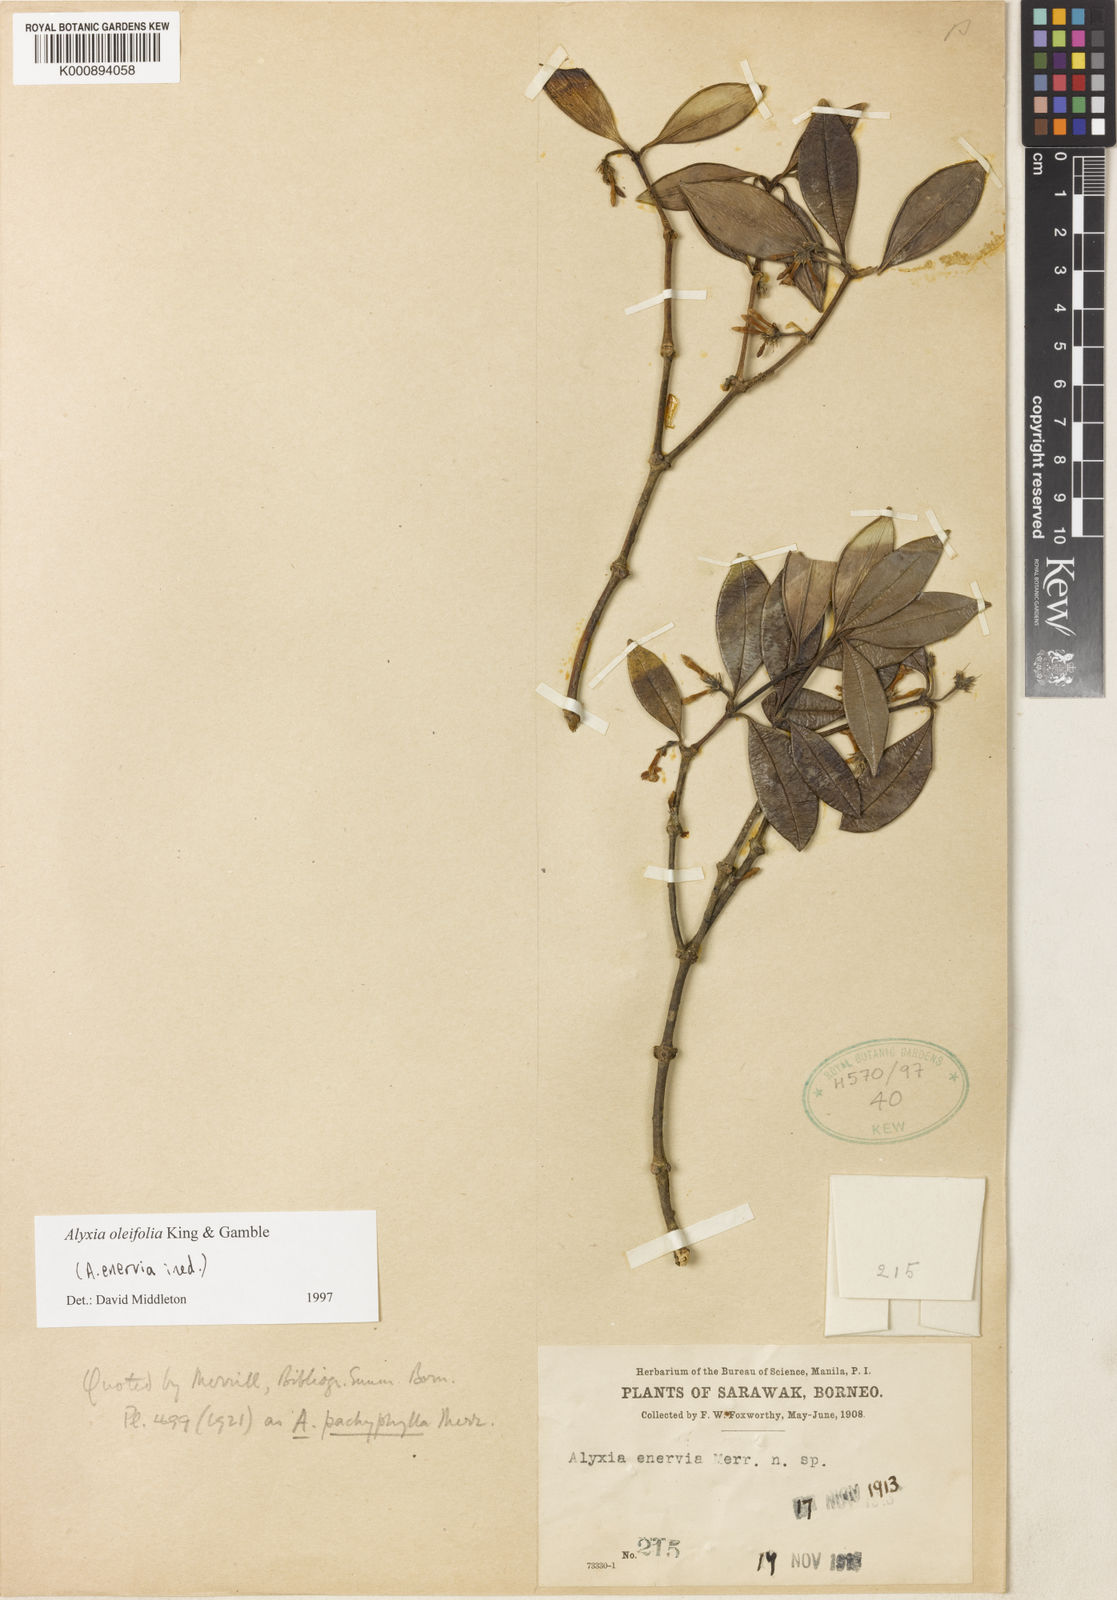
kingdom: Plantae
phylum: Tracheophyta
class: Magnoliopsida
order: Gentianales
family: Apocynaceae
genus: Alyxia
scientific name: Alyxia oleifolia
